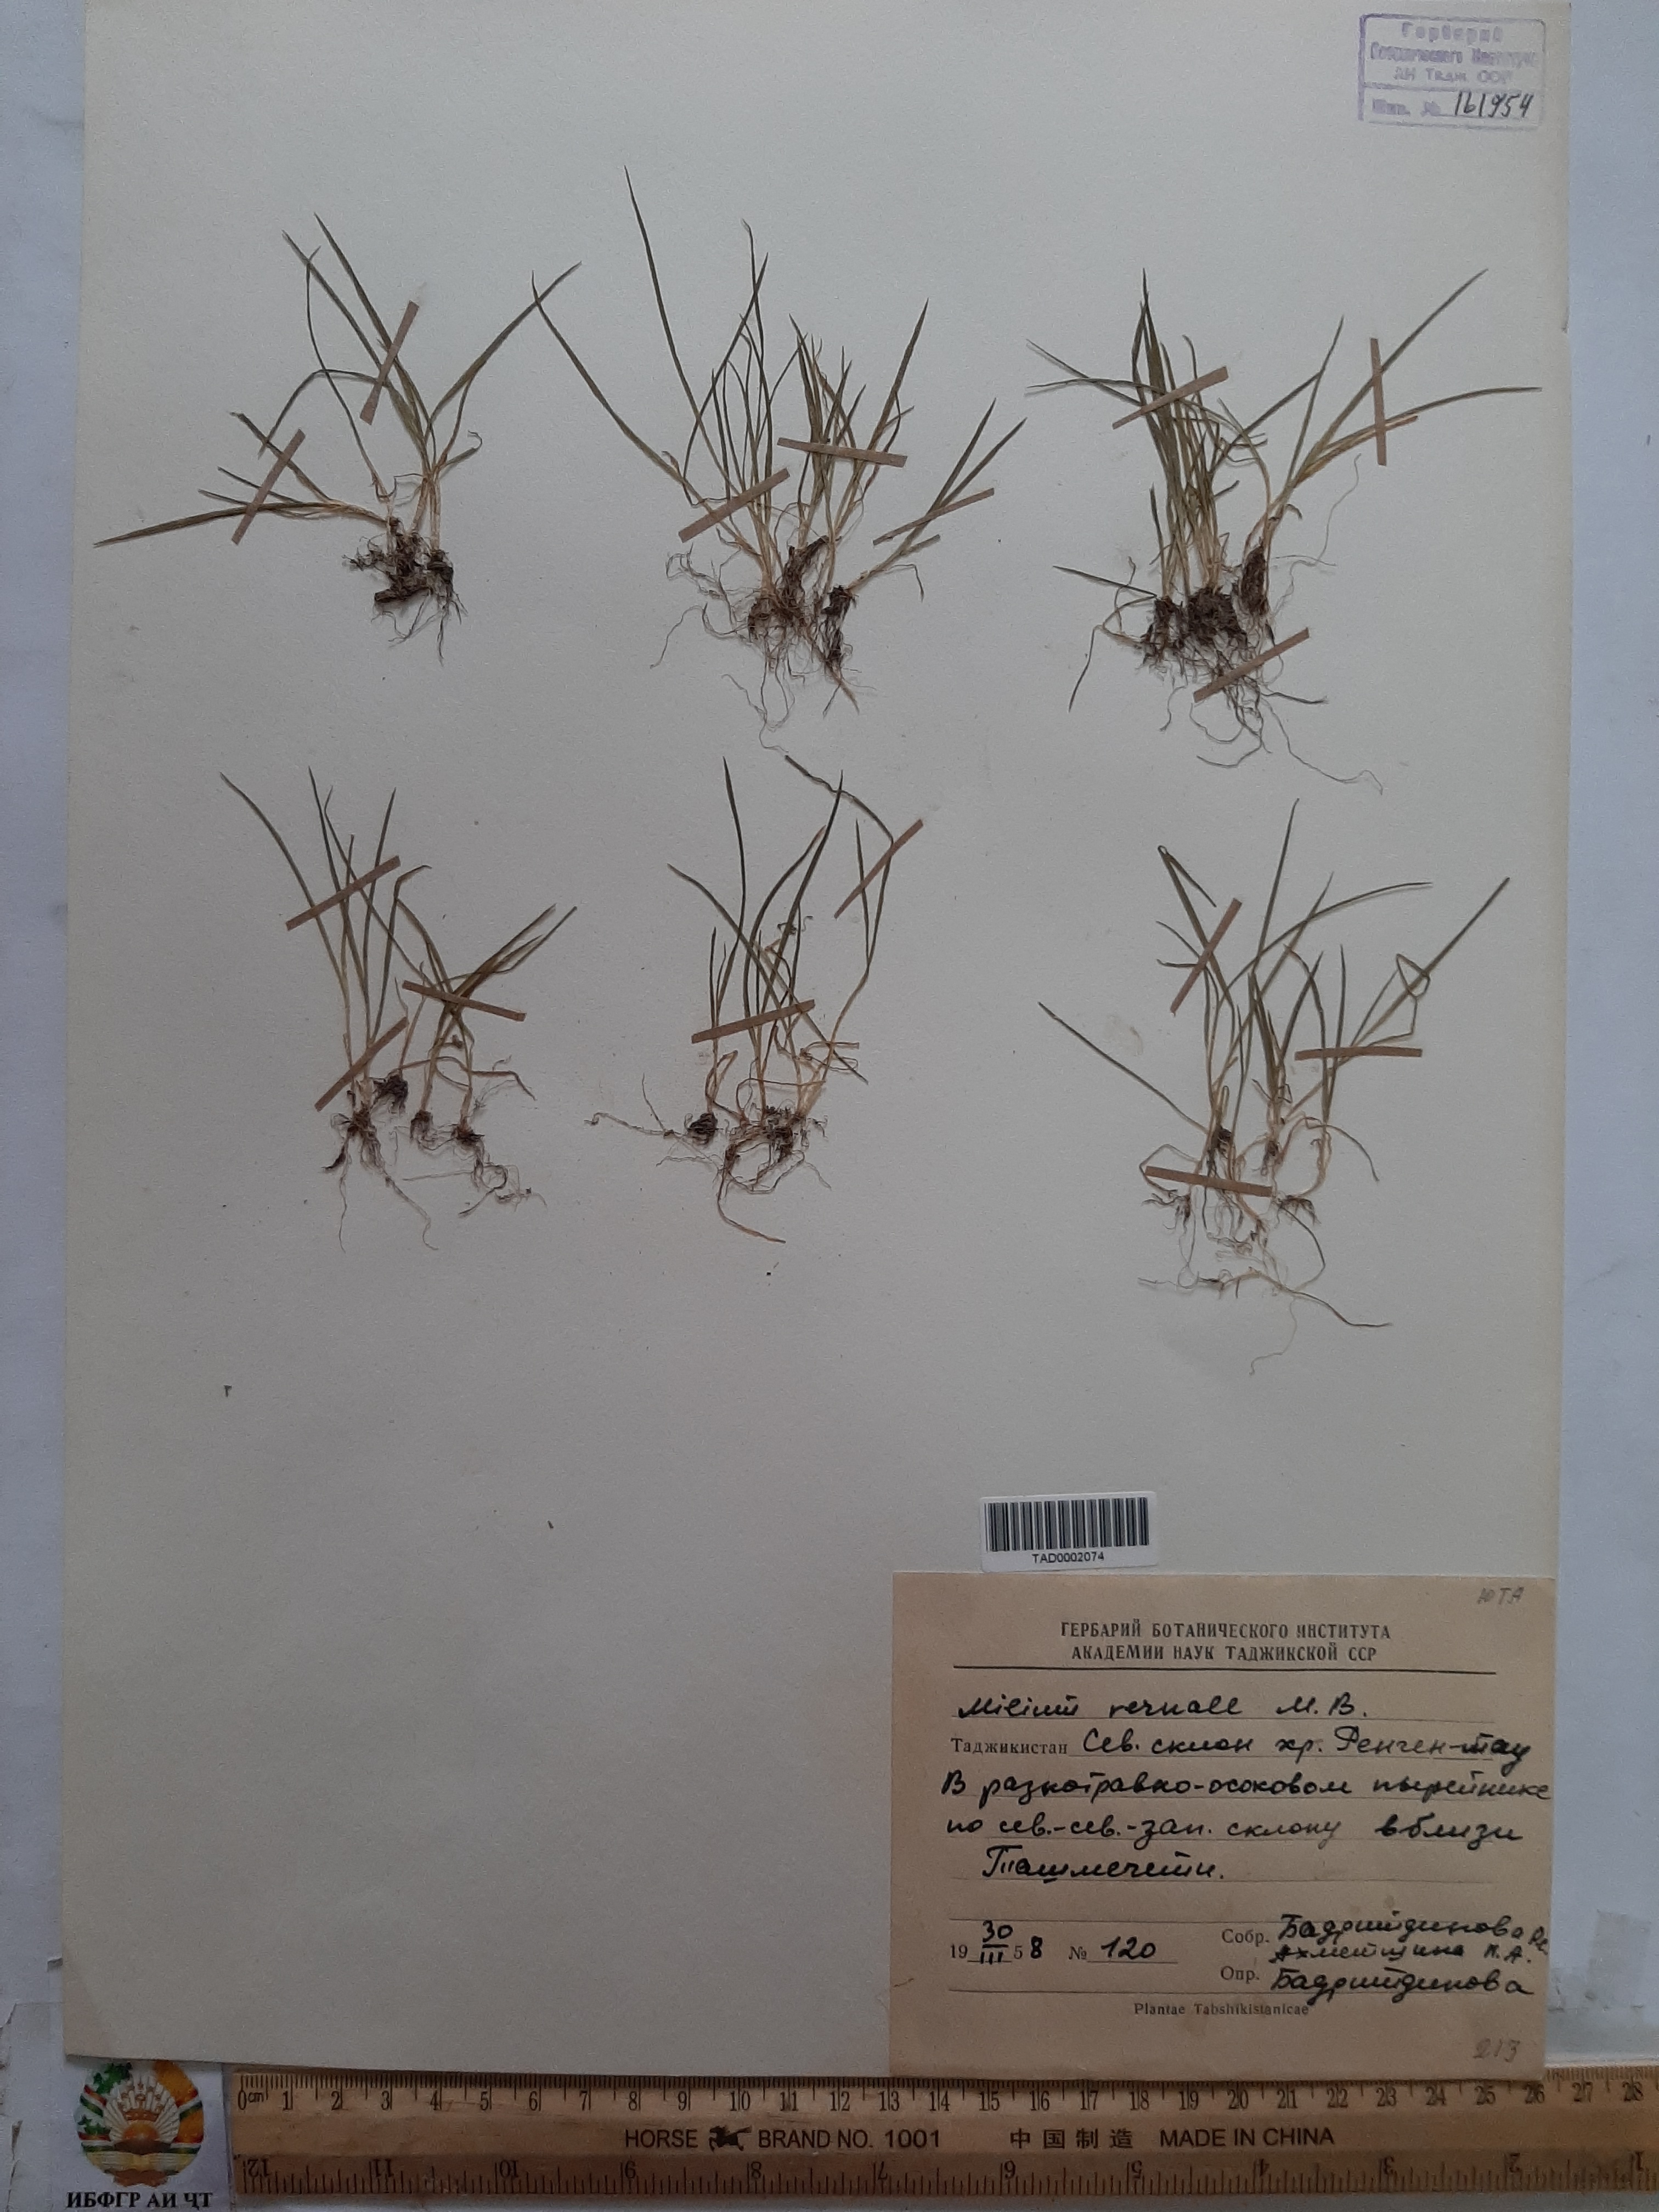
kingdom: Plantae
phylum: Tracheophyta
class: Liliopsida
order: Poales
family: Poaceae
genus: Milium
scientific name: Milium vernale
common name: Early millet
